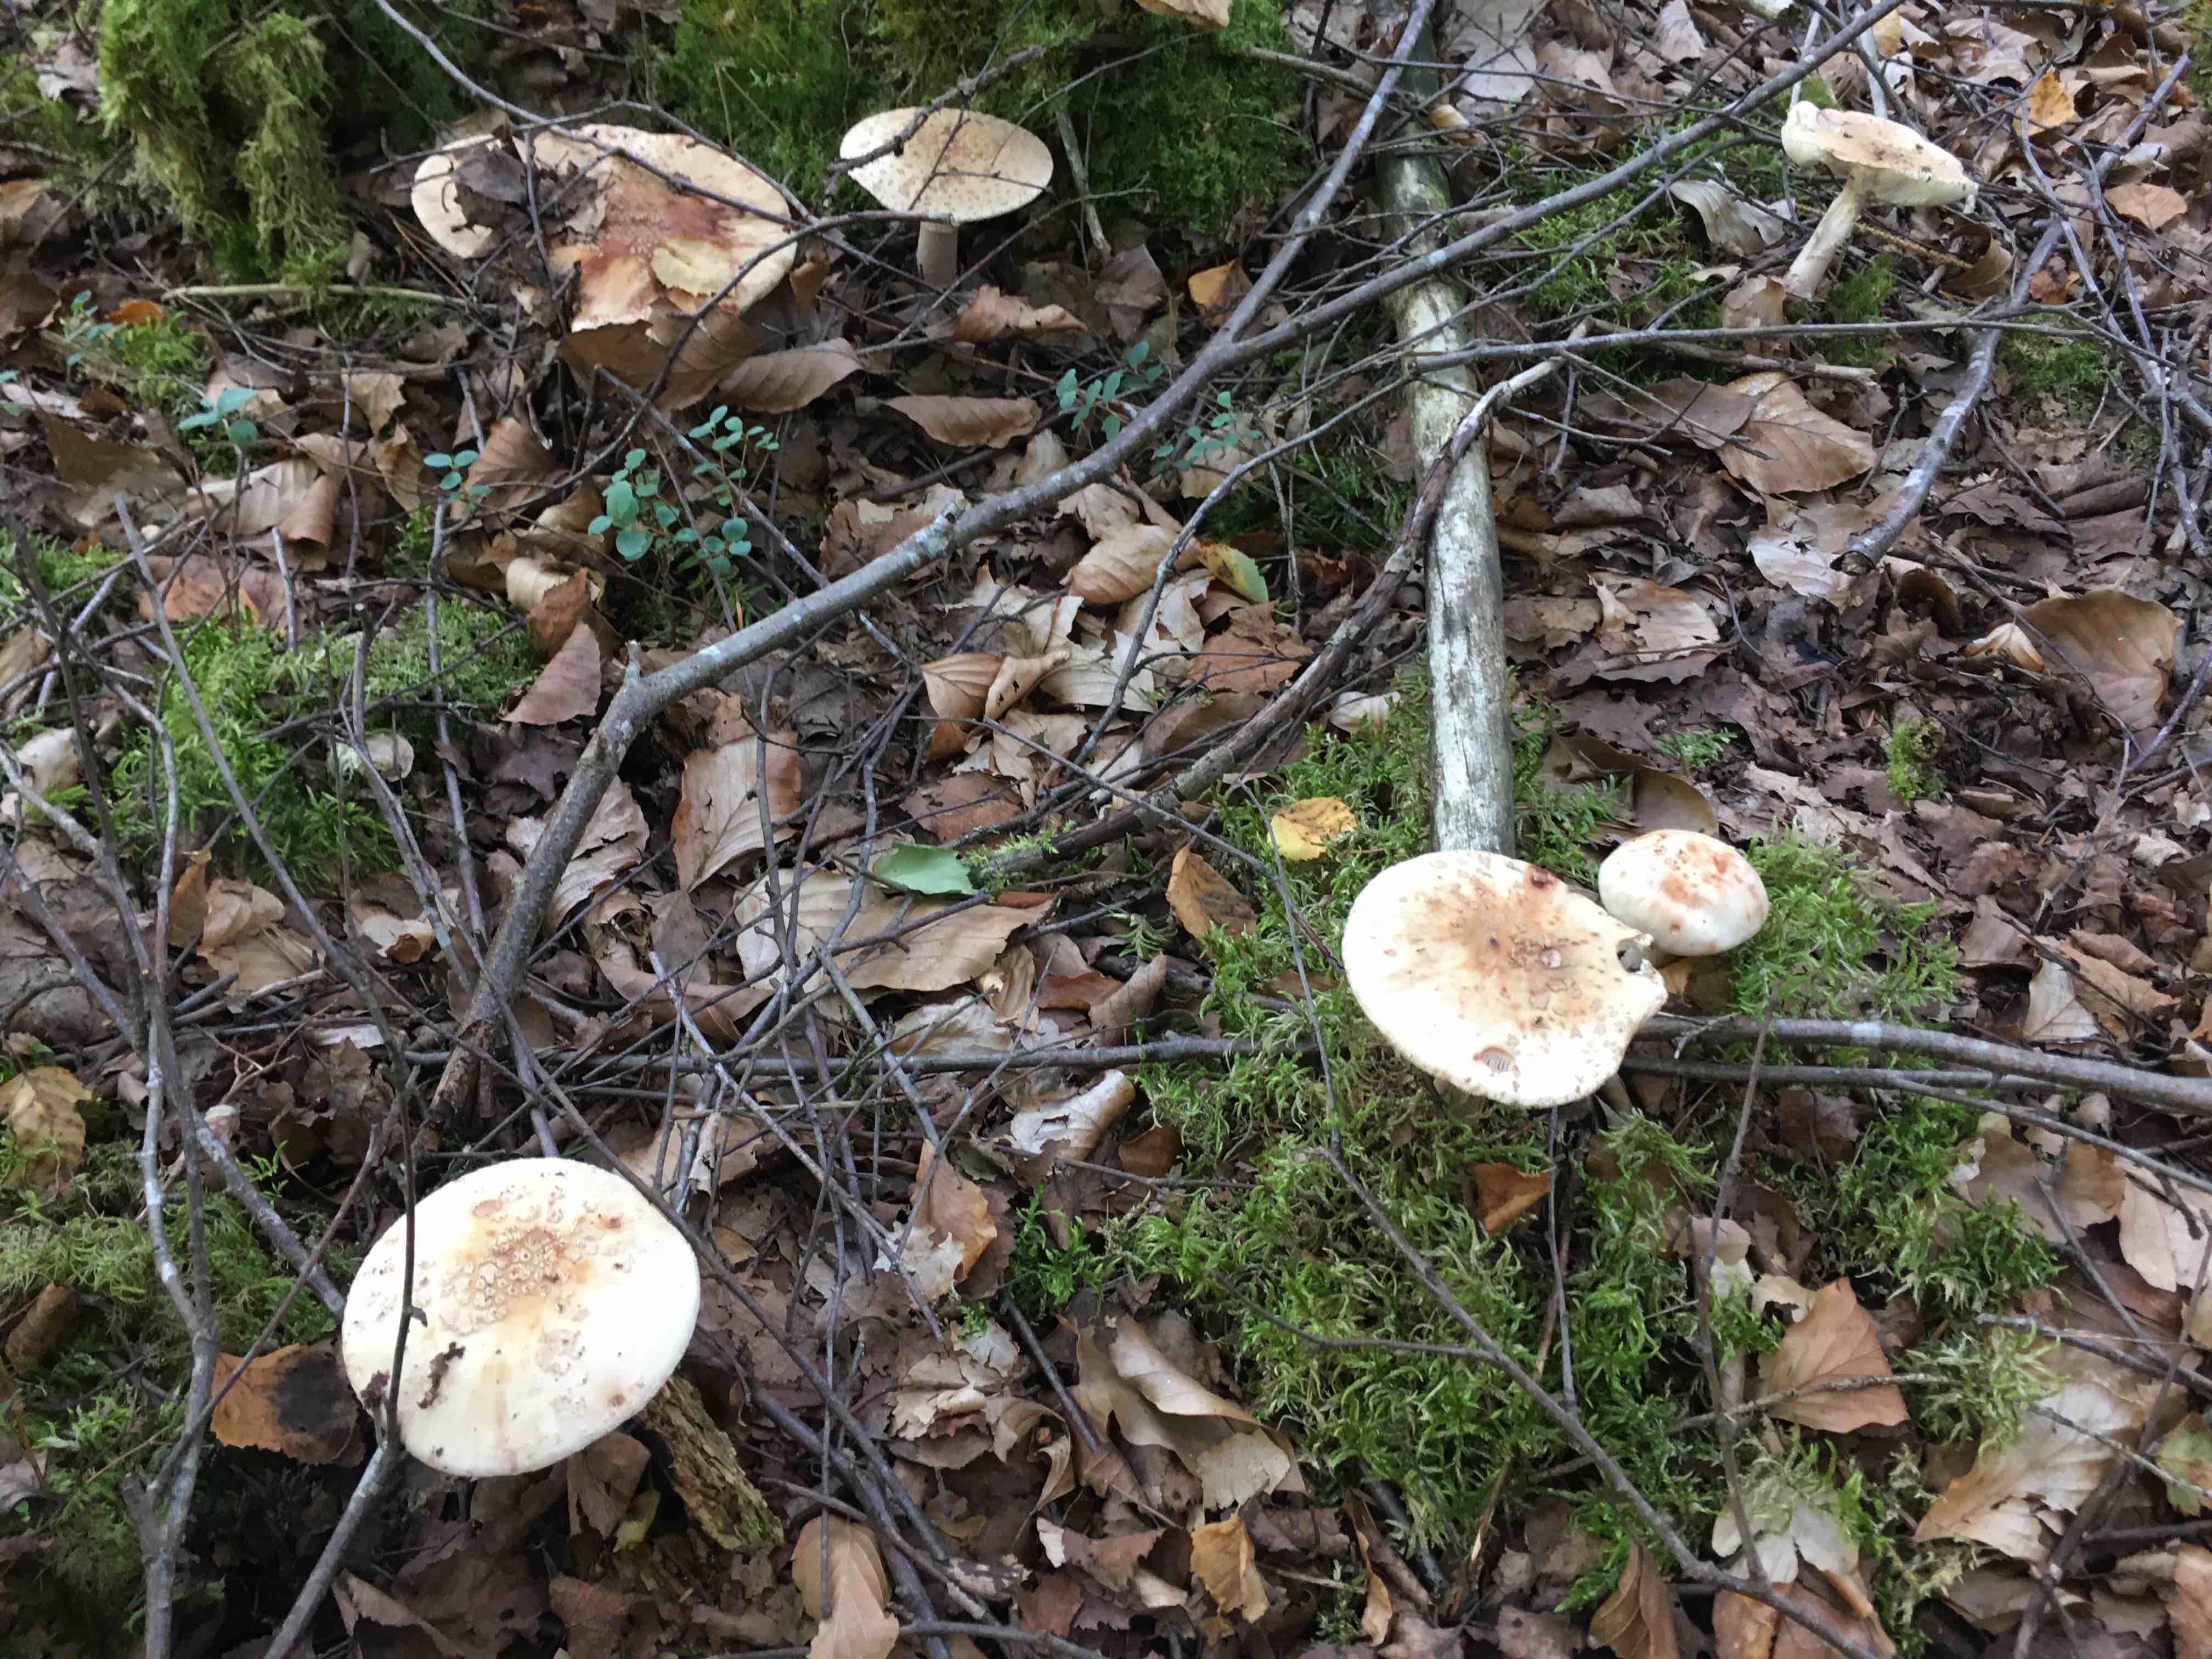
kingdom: Fungi
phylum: Basidiomycota
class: Agaricomycetes
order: Agaricales
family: Amanitaceae
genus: Amanita
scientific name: Amanita rubescens
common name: rødmende fluesvamp
